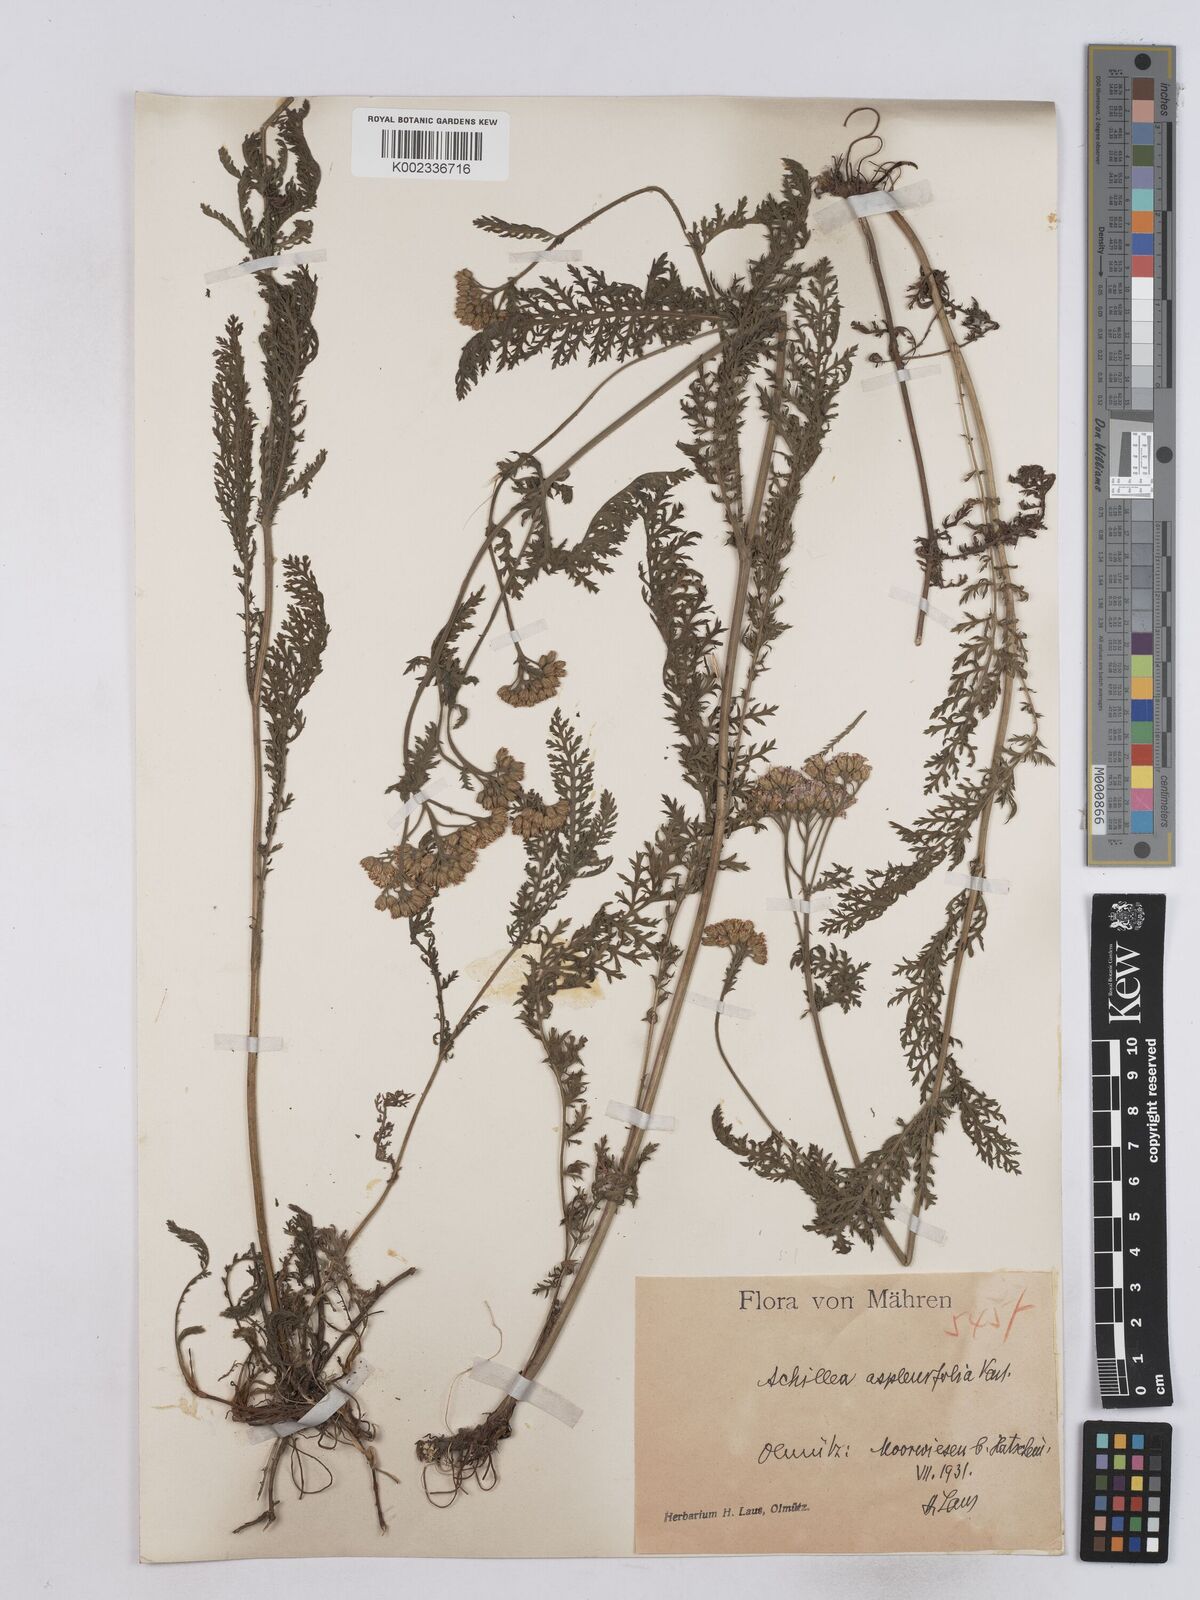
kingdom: Plantae
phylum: Tracheophyta
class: Magnoliopsida
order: Asterales
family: Asteraceae
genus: Achillea
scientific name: Achillea aspleniifolia
